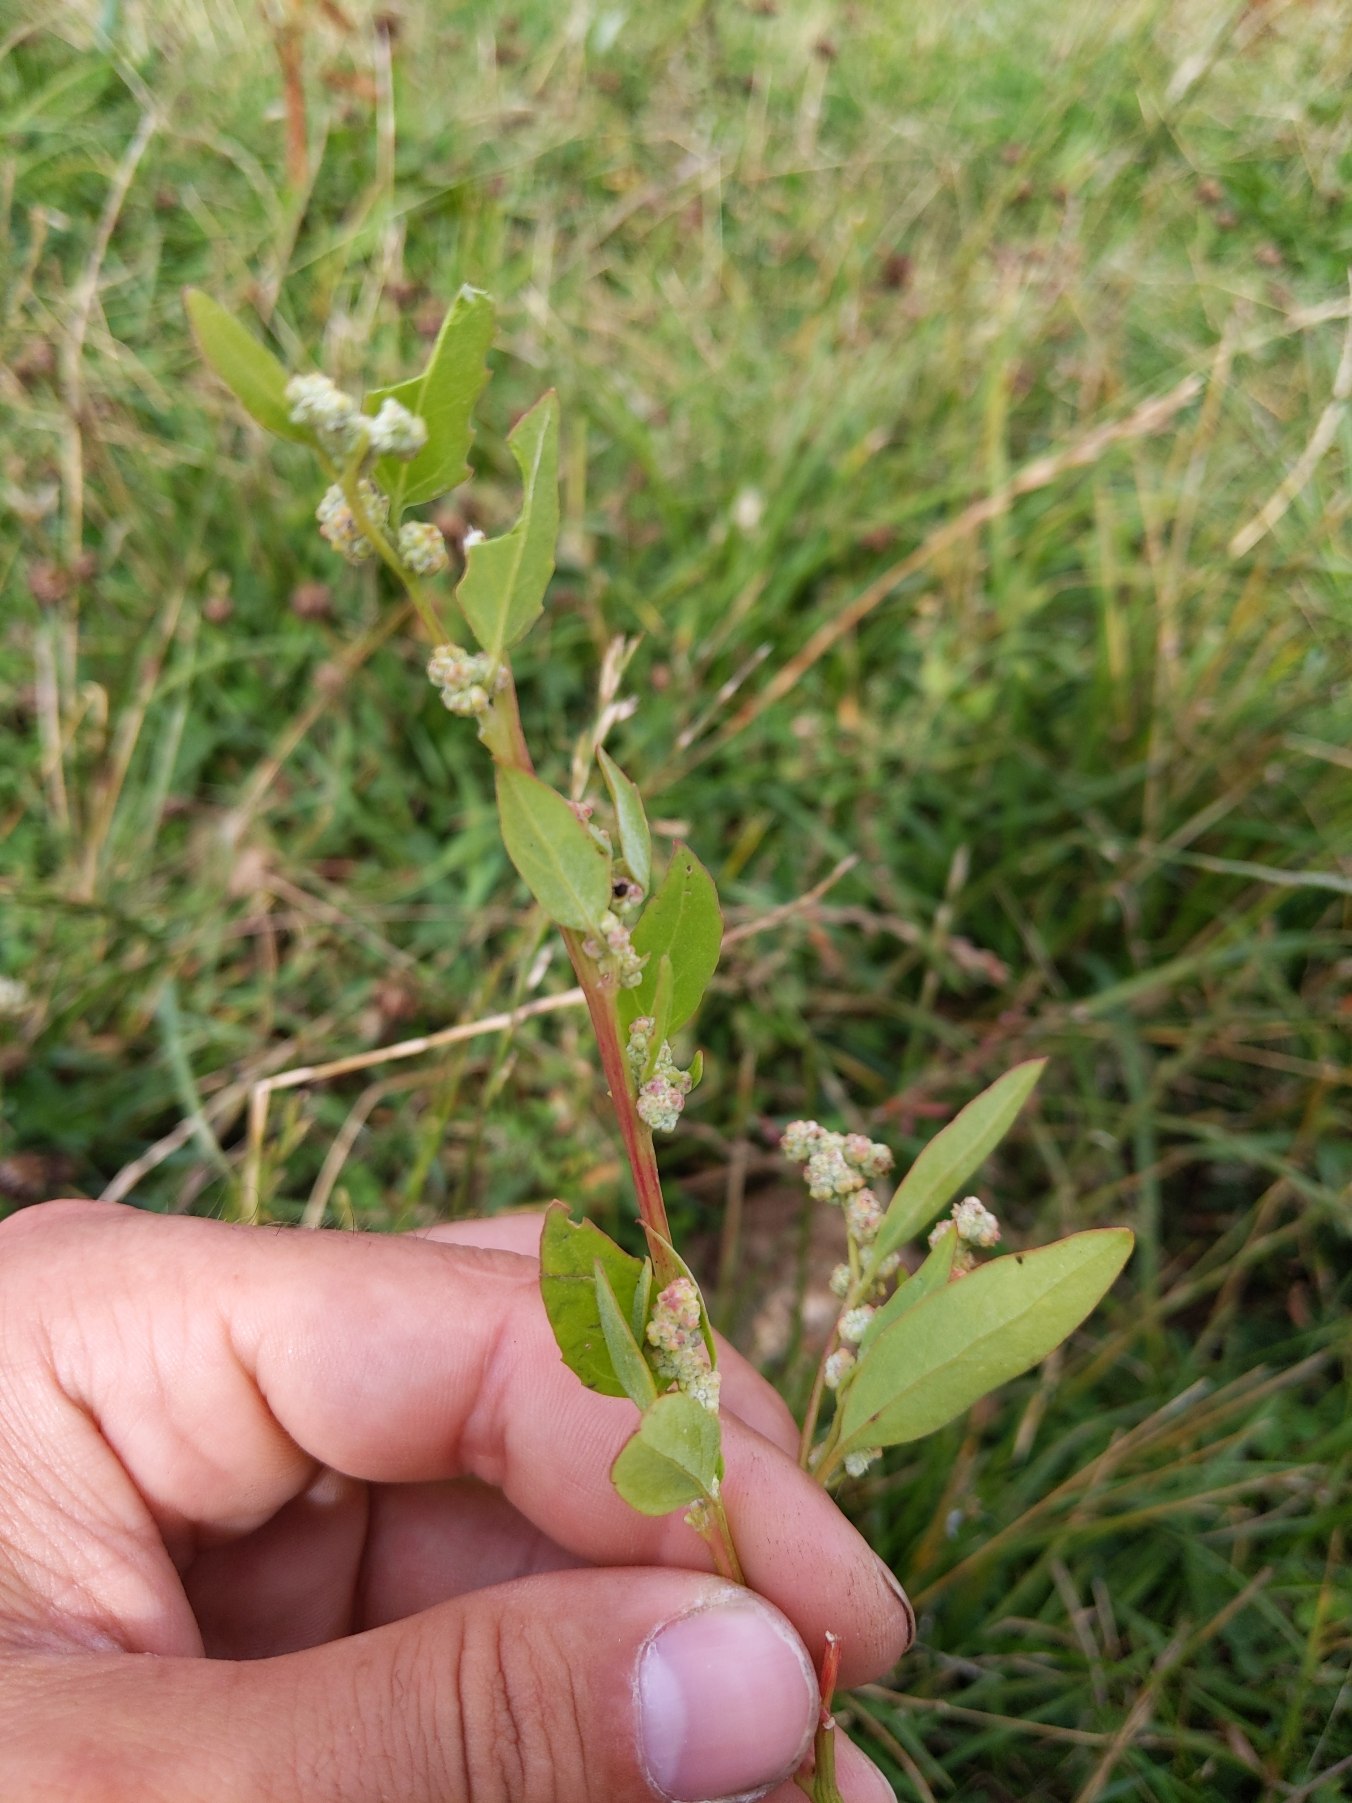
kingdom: Plantae
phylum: Tracheophyta
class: Magnoliopsida
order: Caryophyllales
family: Amaranthaceae
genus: Chenopodium
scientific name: Chenopodium album
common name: Hvidmelet gåsefod
